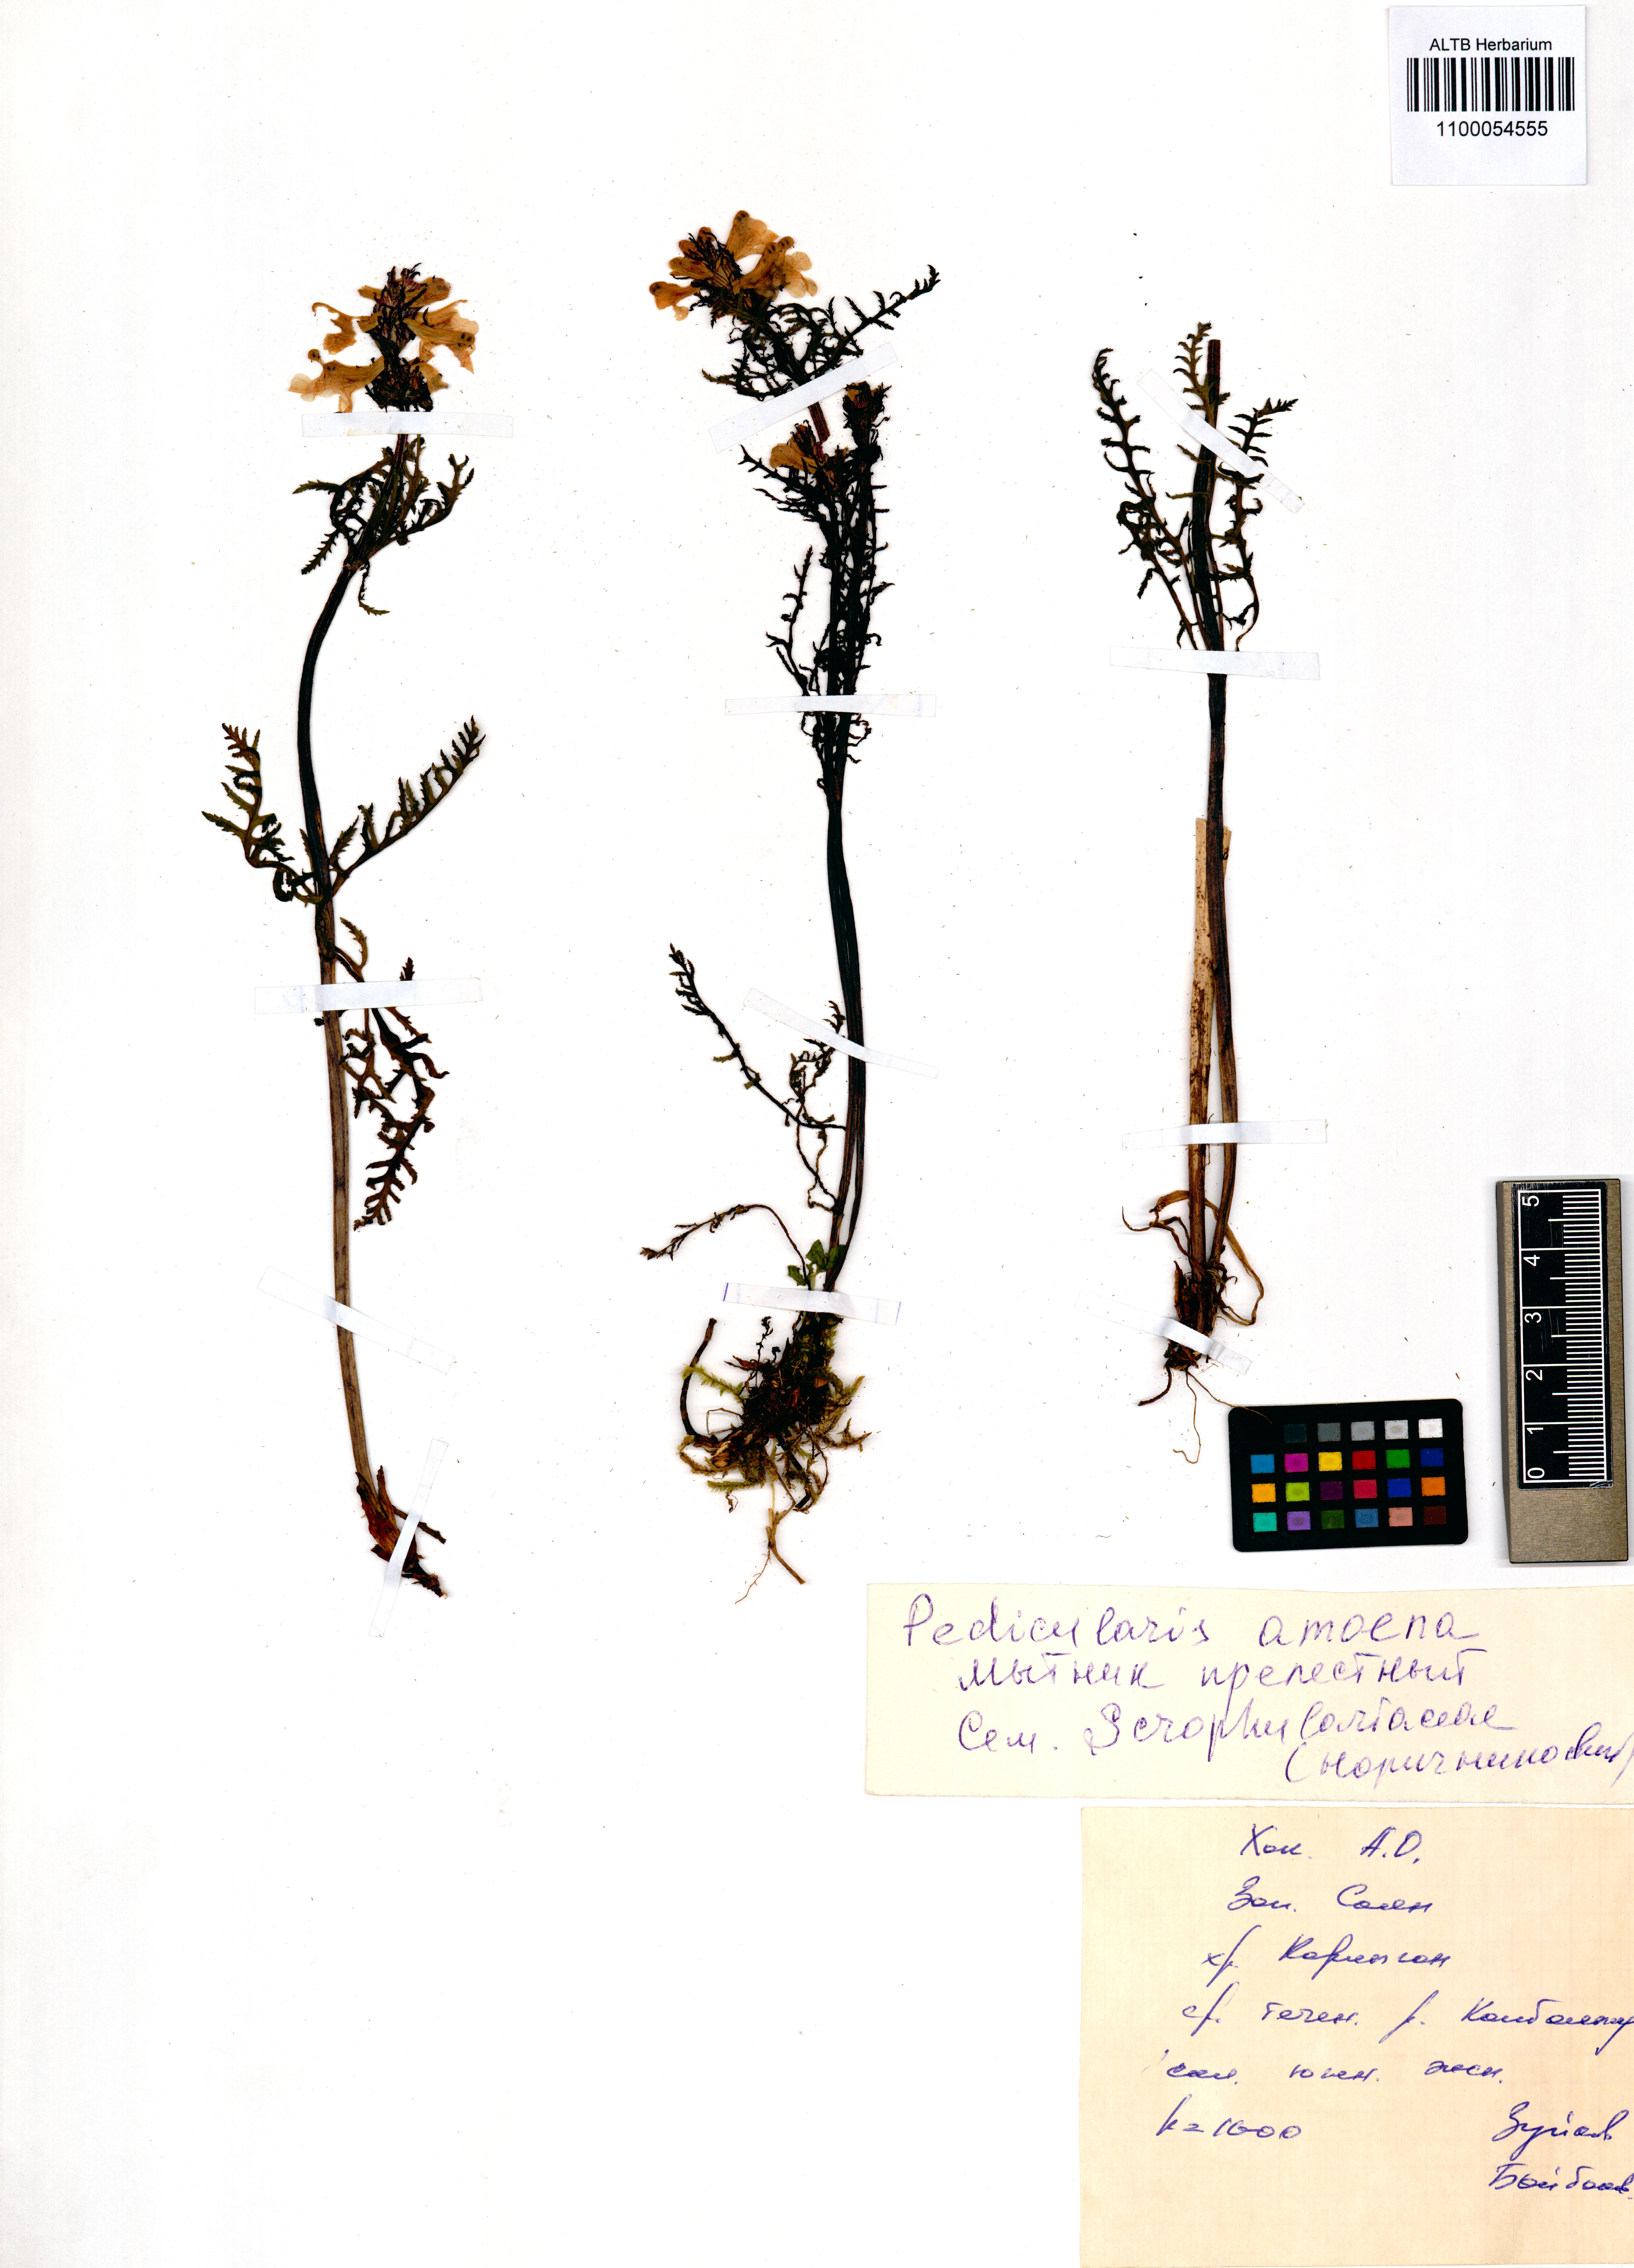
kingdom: Plantae
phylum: Tracheophyta
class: Magnoliopsida
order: Lamiales
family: Orobanchaceae
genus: Pedicularis
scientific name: Pedicularis amoena
